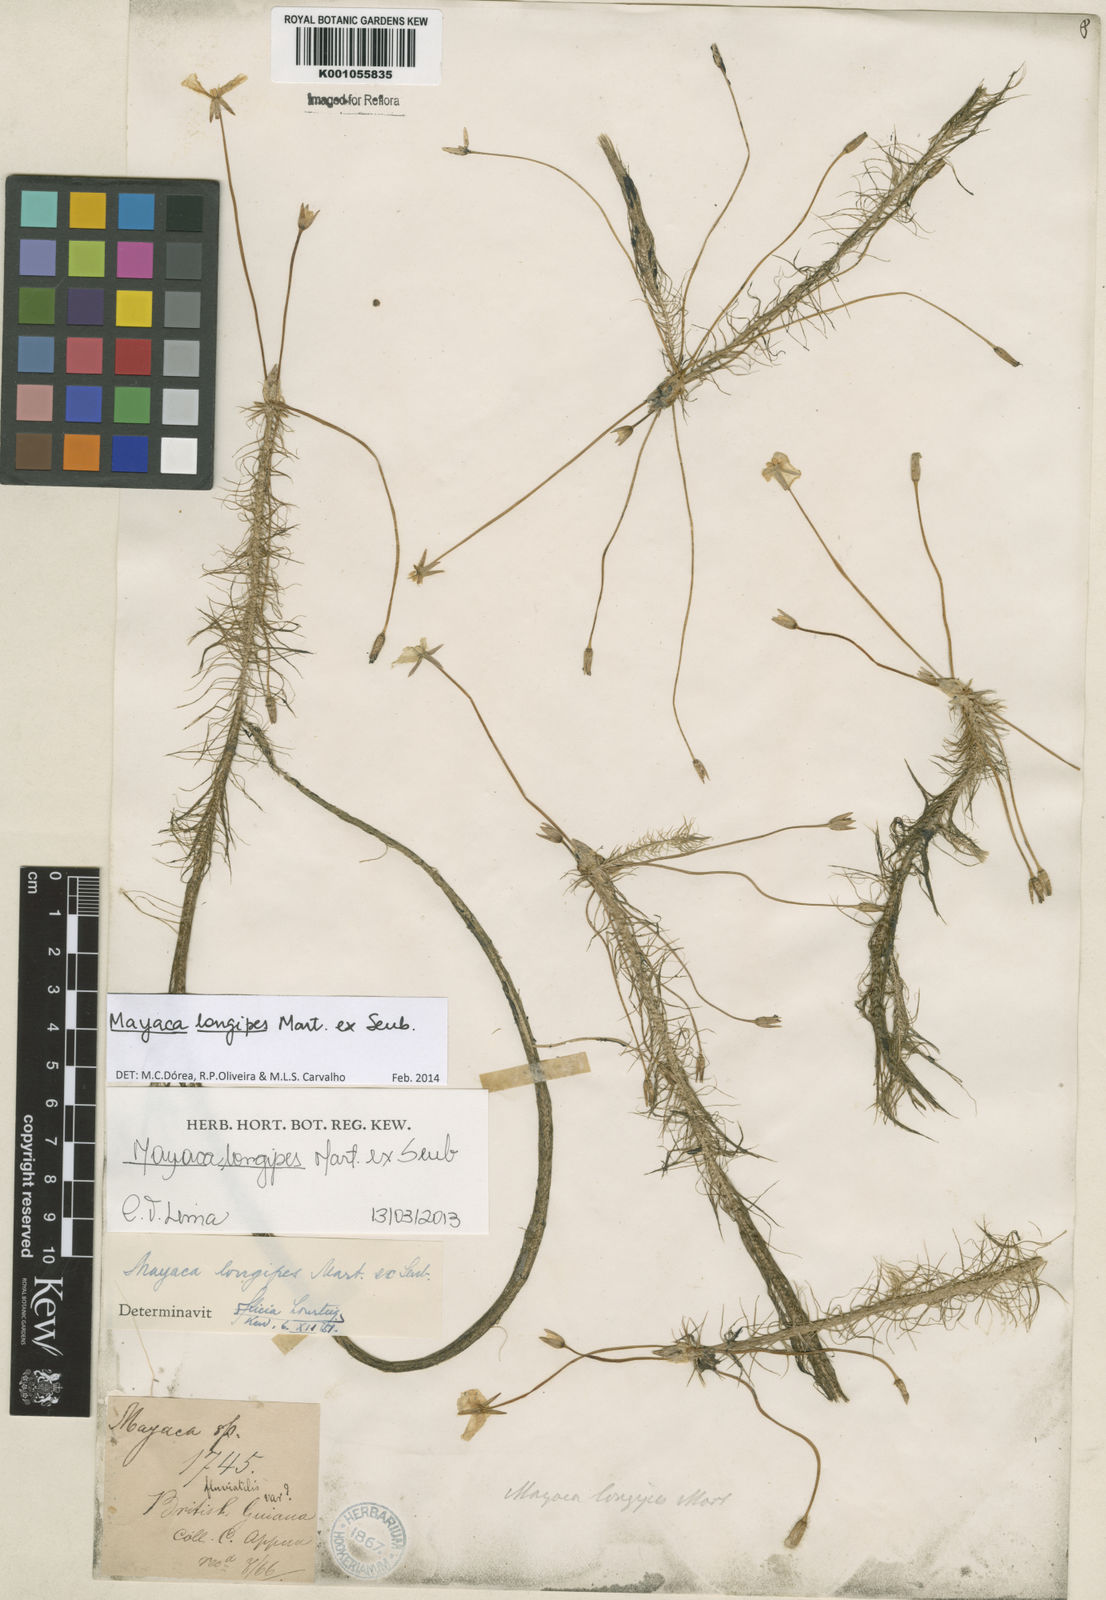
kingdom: Plantae
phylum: Tracheophyta
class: Liliopsida
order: Poales
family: Mayacaceae
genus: Mayaca
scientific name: Mayaca longipes
